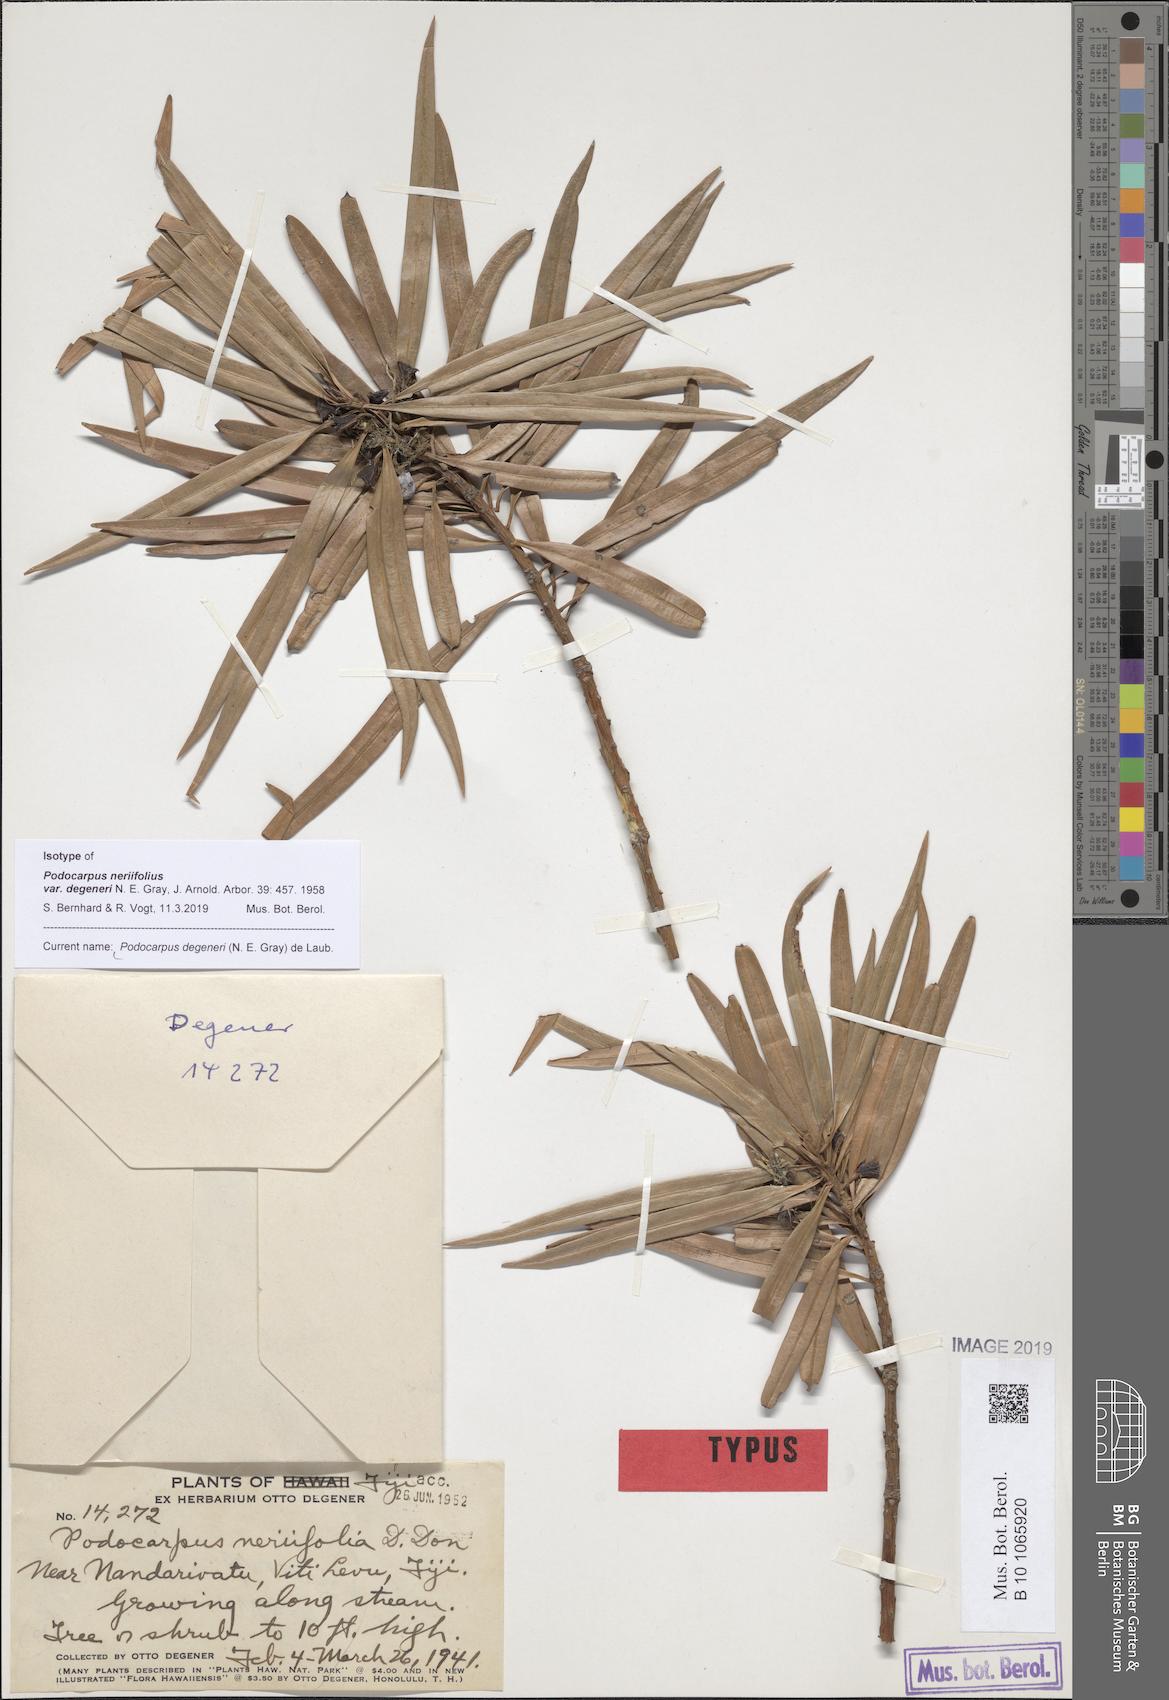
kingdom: Plantae
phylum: Tracheophyta
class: Pinopsida
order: Pinales
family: Podocarpaceae
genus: Podocarpus
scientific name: Podocarpus neriifolius
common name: Brown pine
